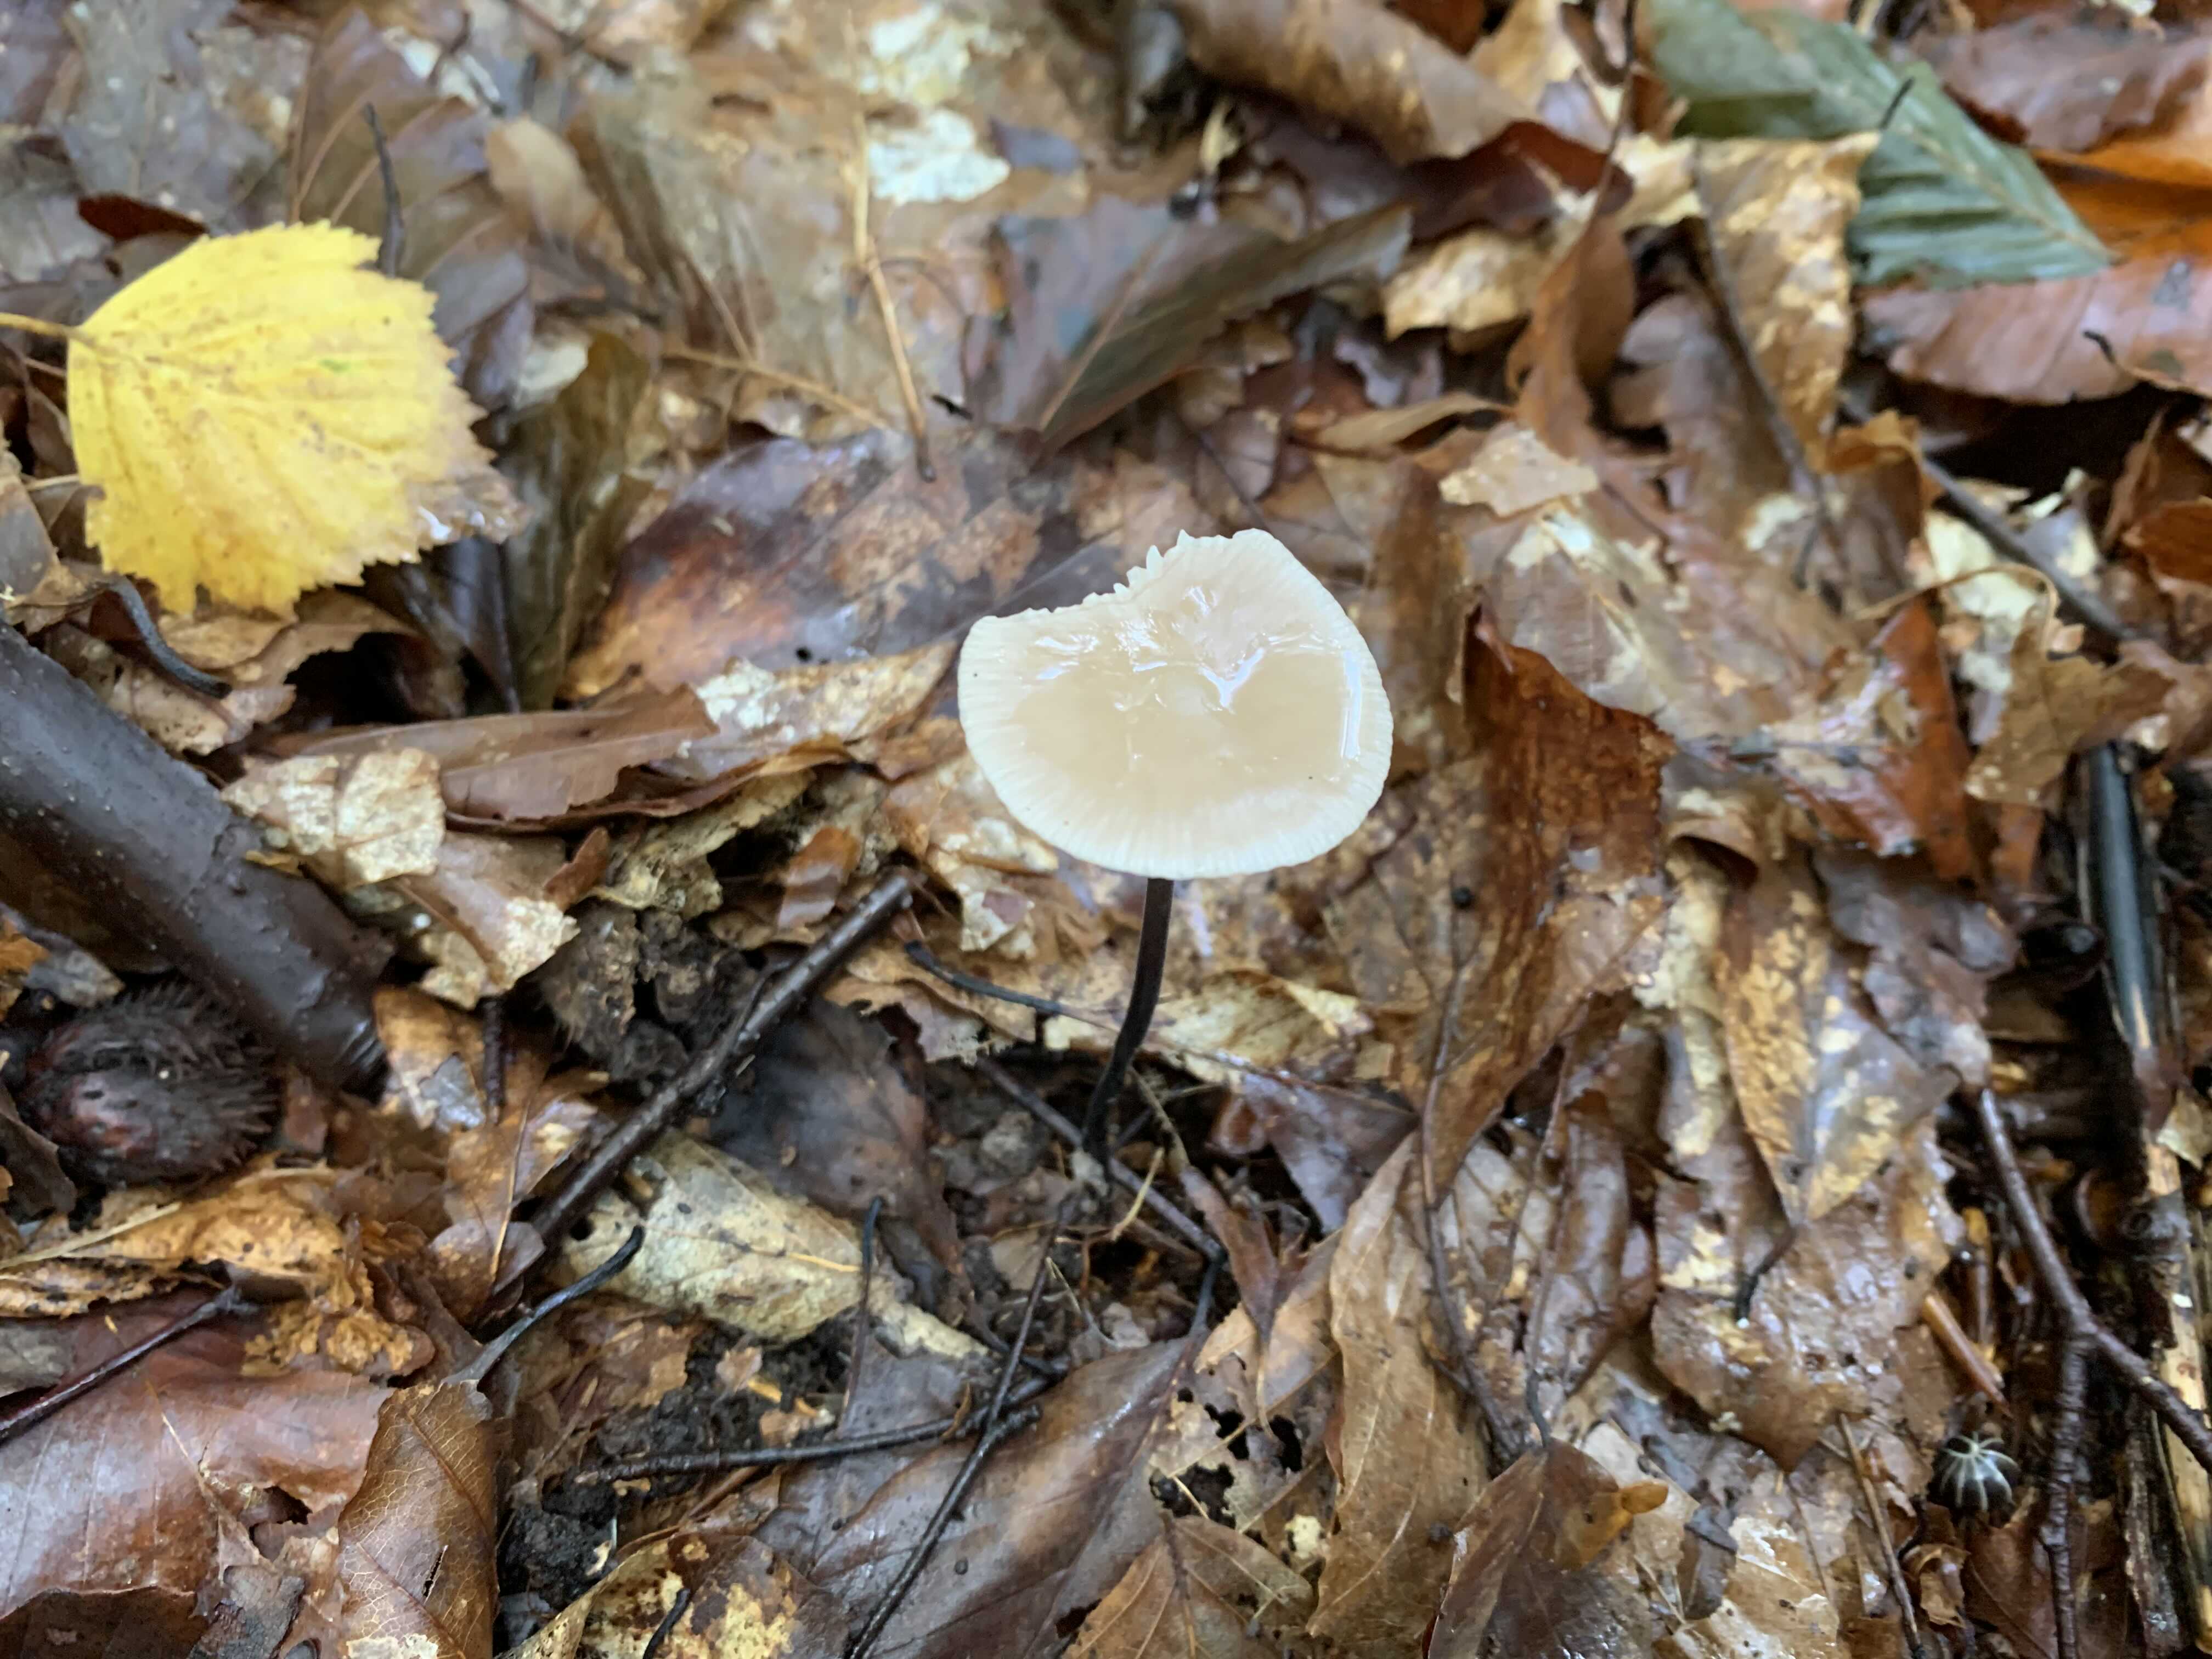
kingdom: Fungi
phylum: Basidiomycota
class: Agaricomycetes
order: Agaricales
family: Omphalotaceae
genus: Mycetinis
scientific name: Mycetinis alliaceus
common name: stor løghat
